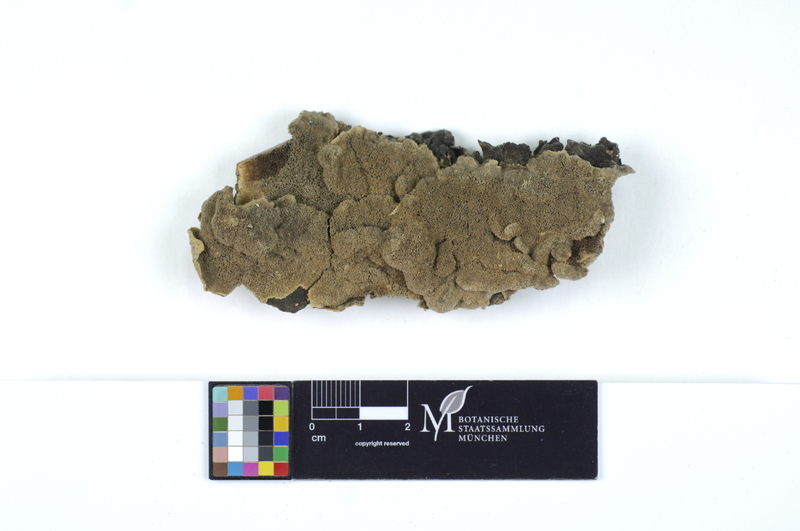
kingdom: Fungi
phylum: Basidiomycota
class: Agaricomycetes
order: Polyporales
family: Cerrenaceae
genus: Cerrena
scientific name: Cerrena unicolor
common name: Mossy maze polypore
